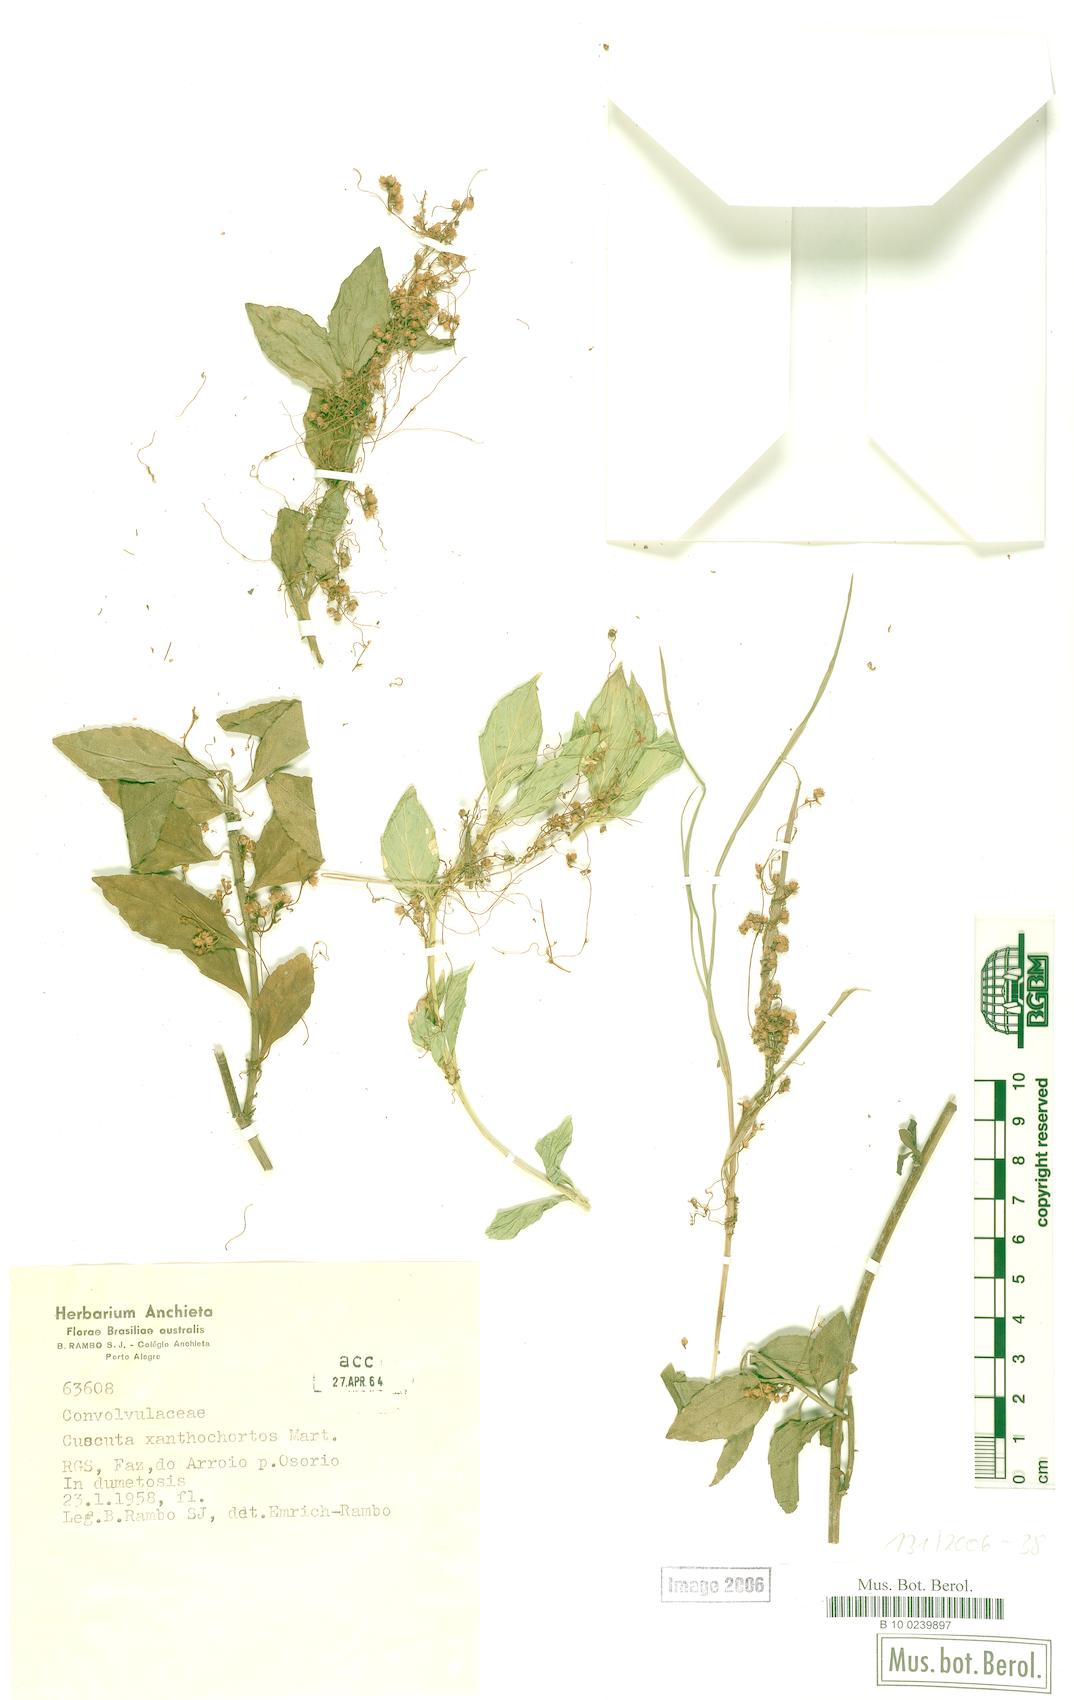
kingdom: Plantae
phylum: Tracheophyta
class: Magnoliopsida
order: Solanales
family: Convolvulaceae
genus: Cuscuta
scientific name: Cuscuta xanthochortos
